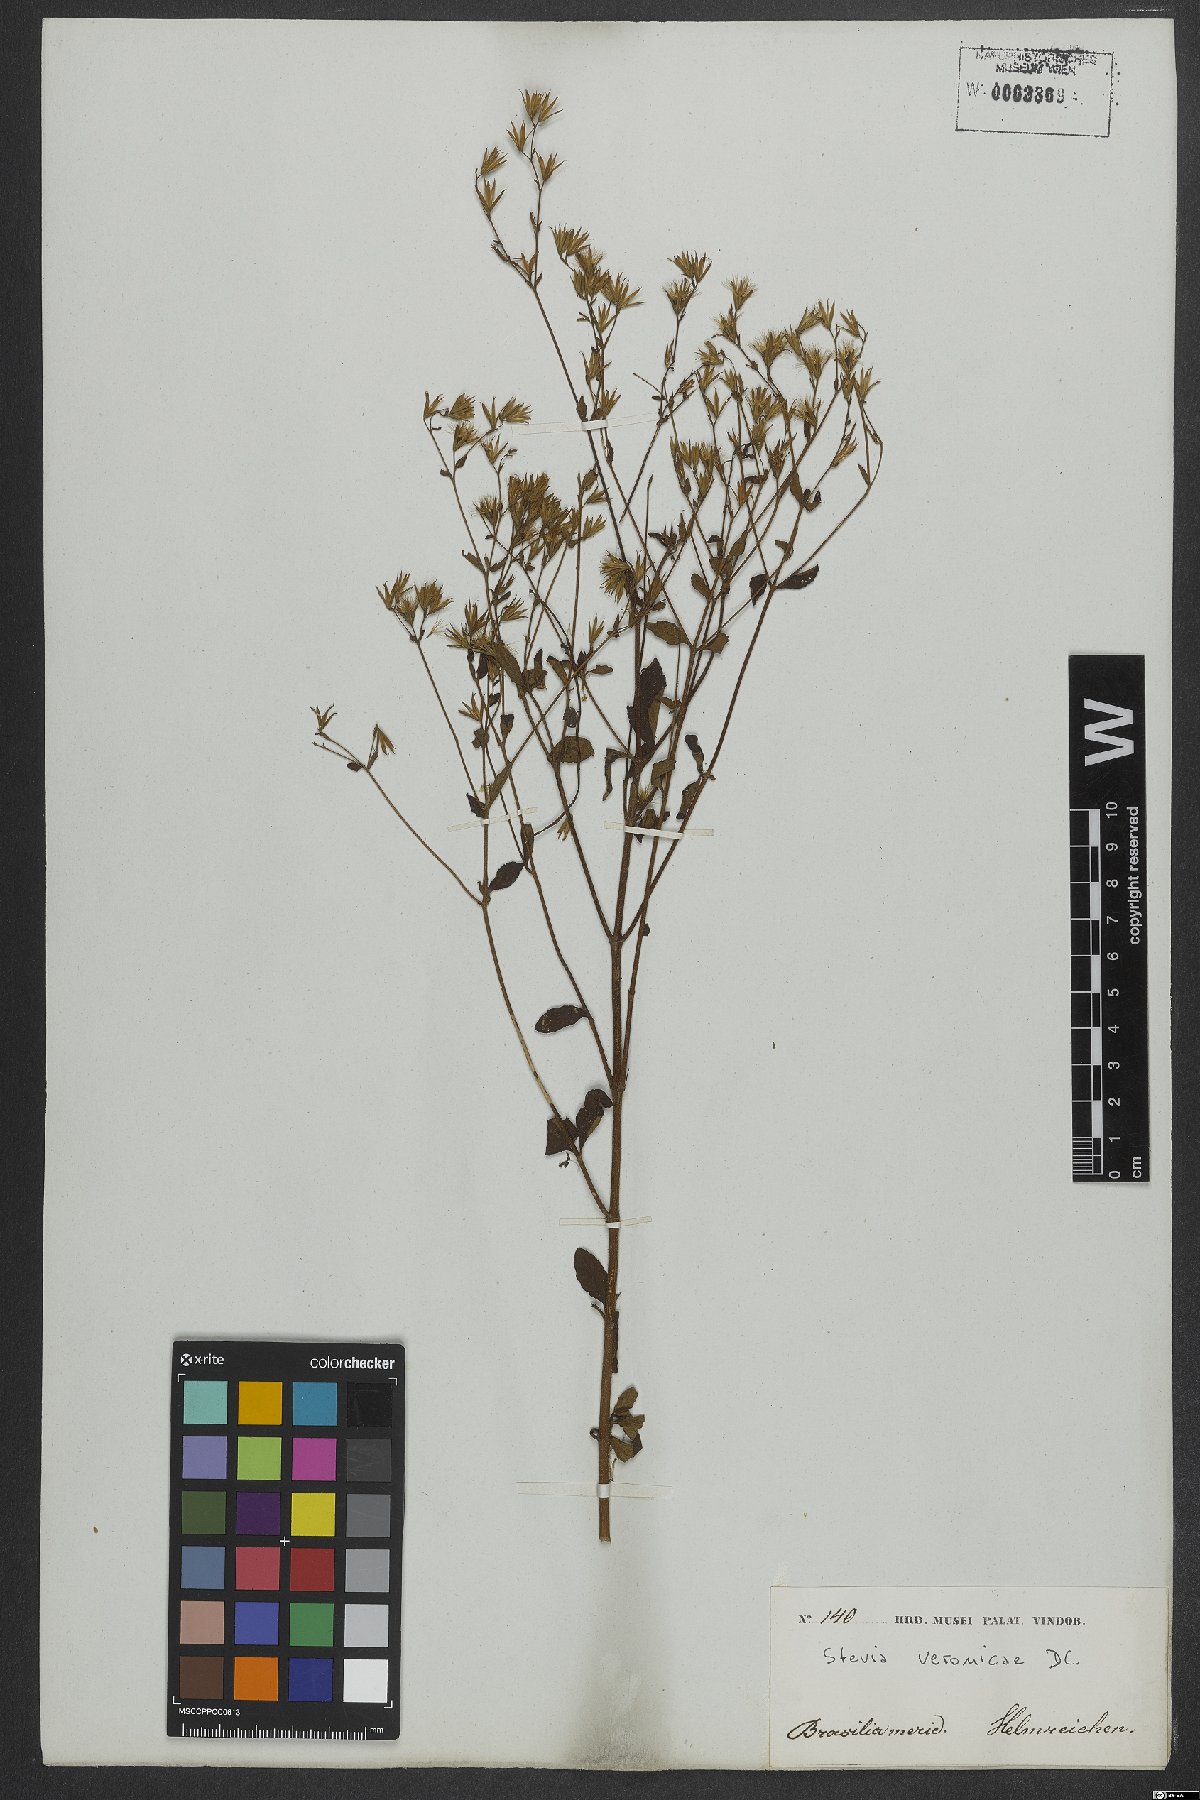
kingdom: Plantae
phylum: Tracheophyta
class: Magnoliopsida
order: Asterales
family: Asteraceae
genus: Stevia
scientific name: Stevia veronicae
